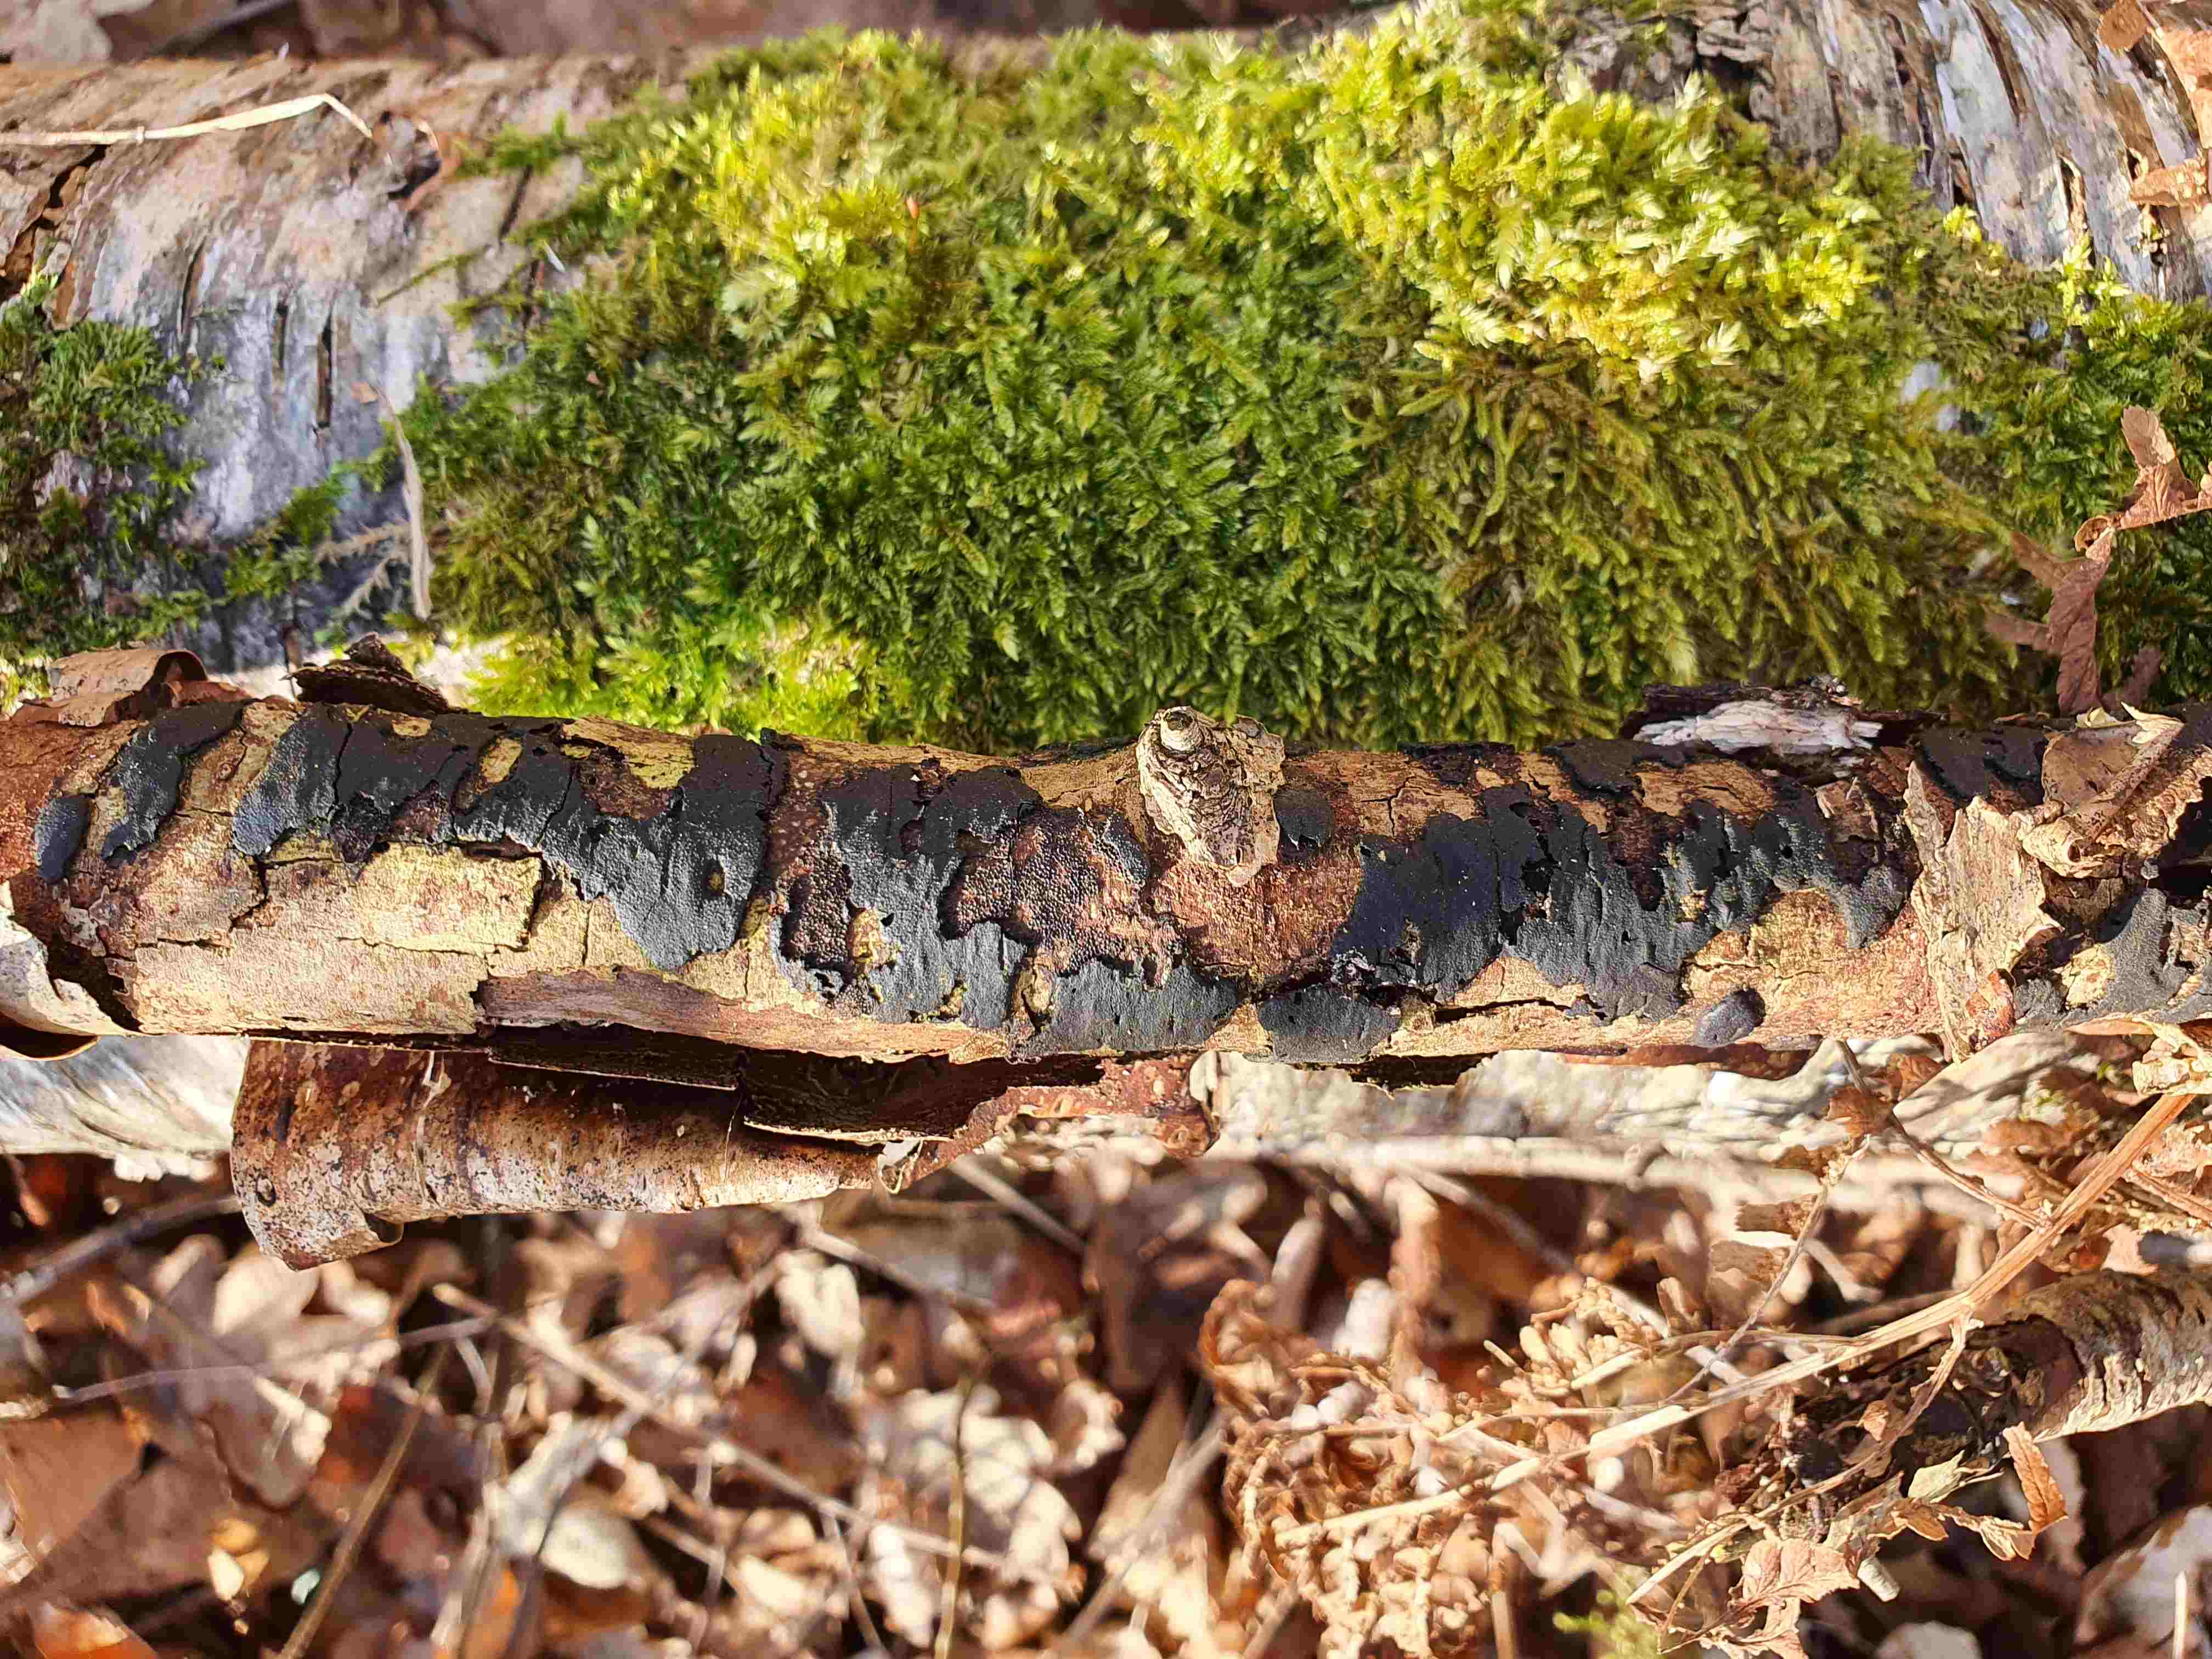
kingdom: Fungi
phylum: Ascomycota
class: Sordariomycetes
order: Xylariales
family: Diatrypaceae
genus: Diatrype
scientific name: Diatrype
